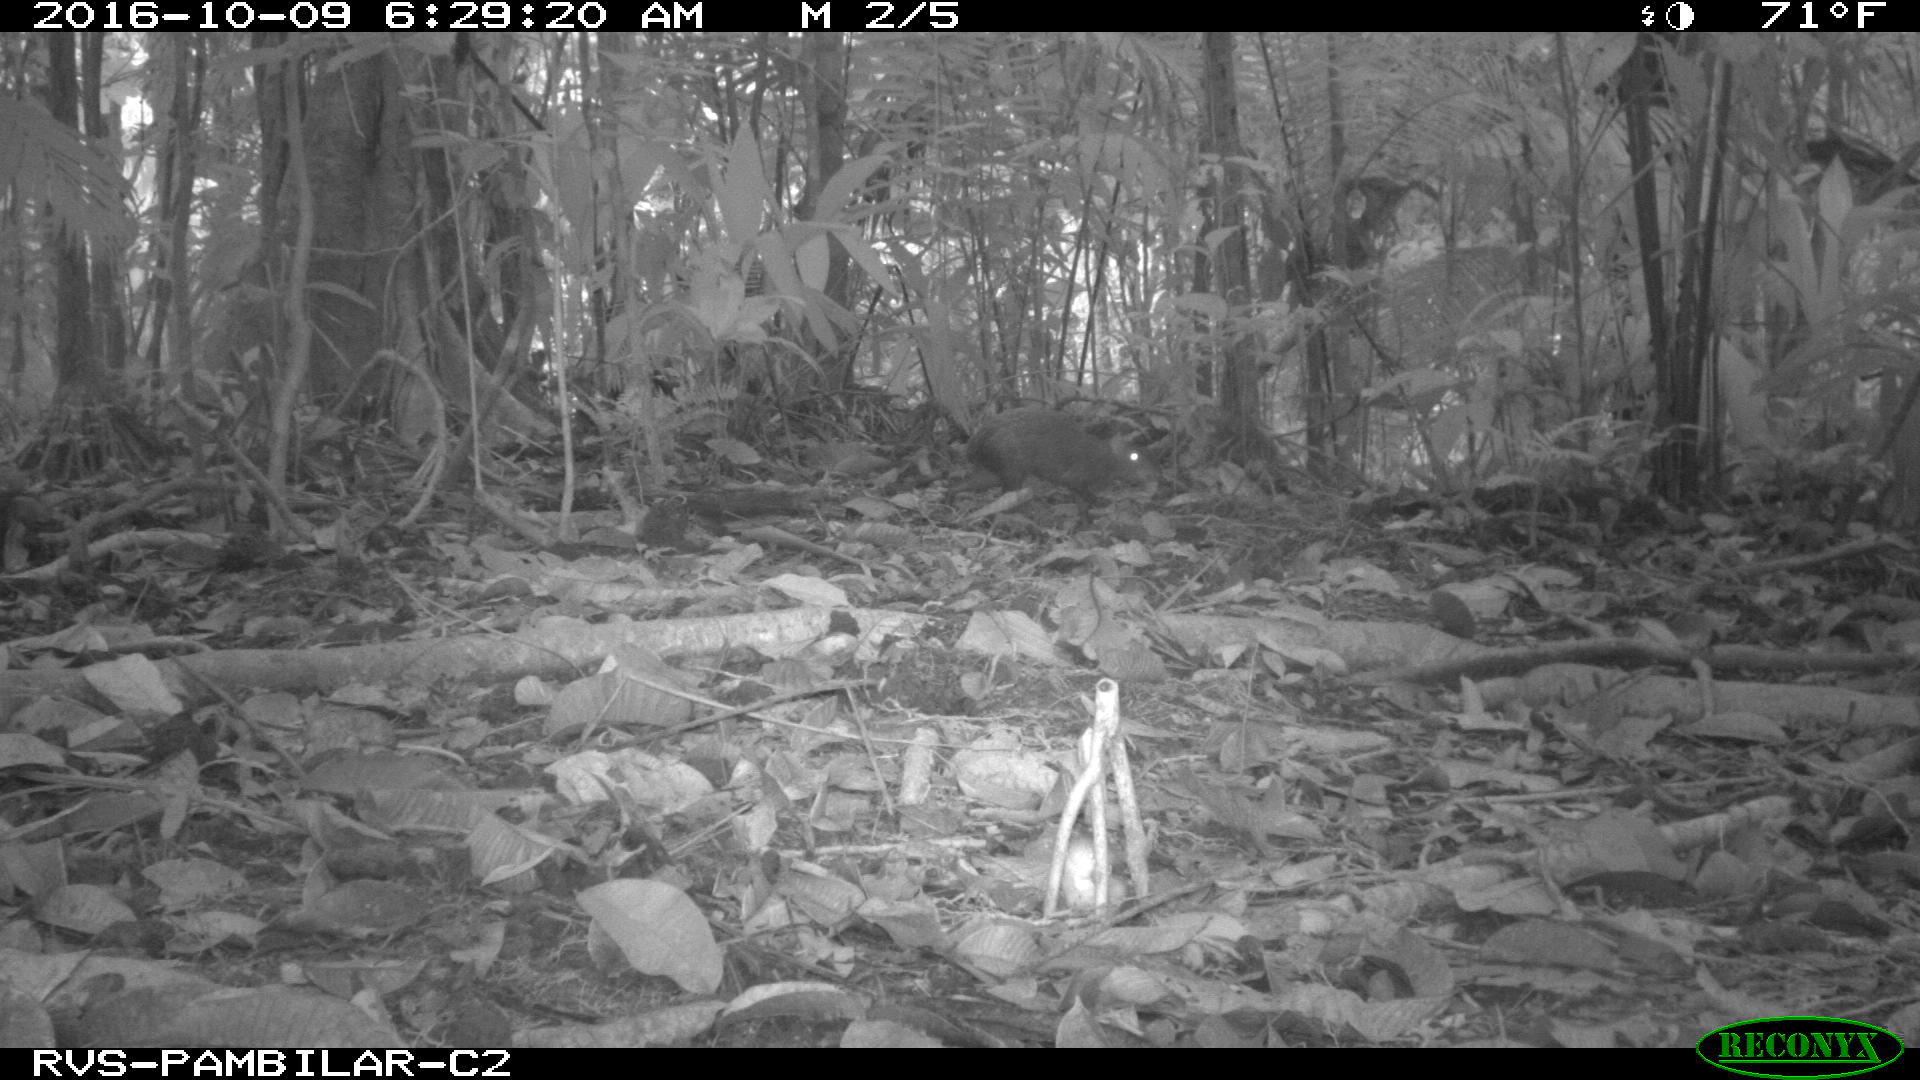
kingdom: Animalia
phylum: Chordata
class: Mammalia
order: Rodentia
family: Dasyproctidae
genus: Dasyprocta
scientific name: Dasyprocta punctata
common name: Central american agouti
